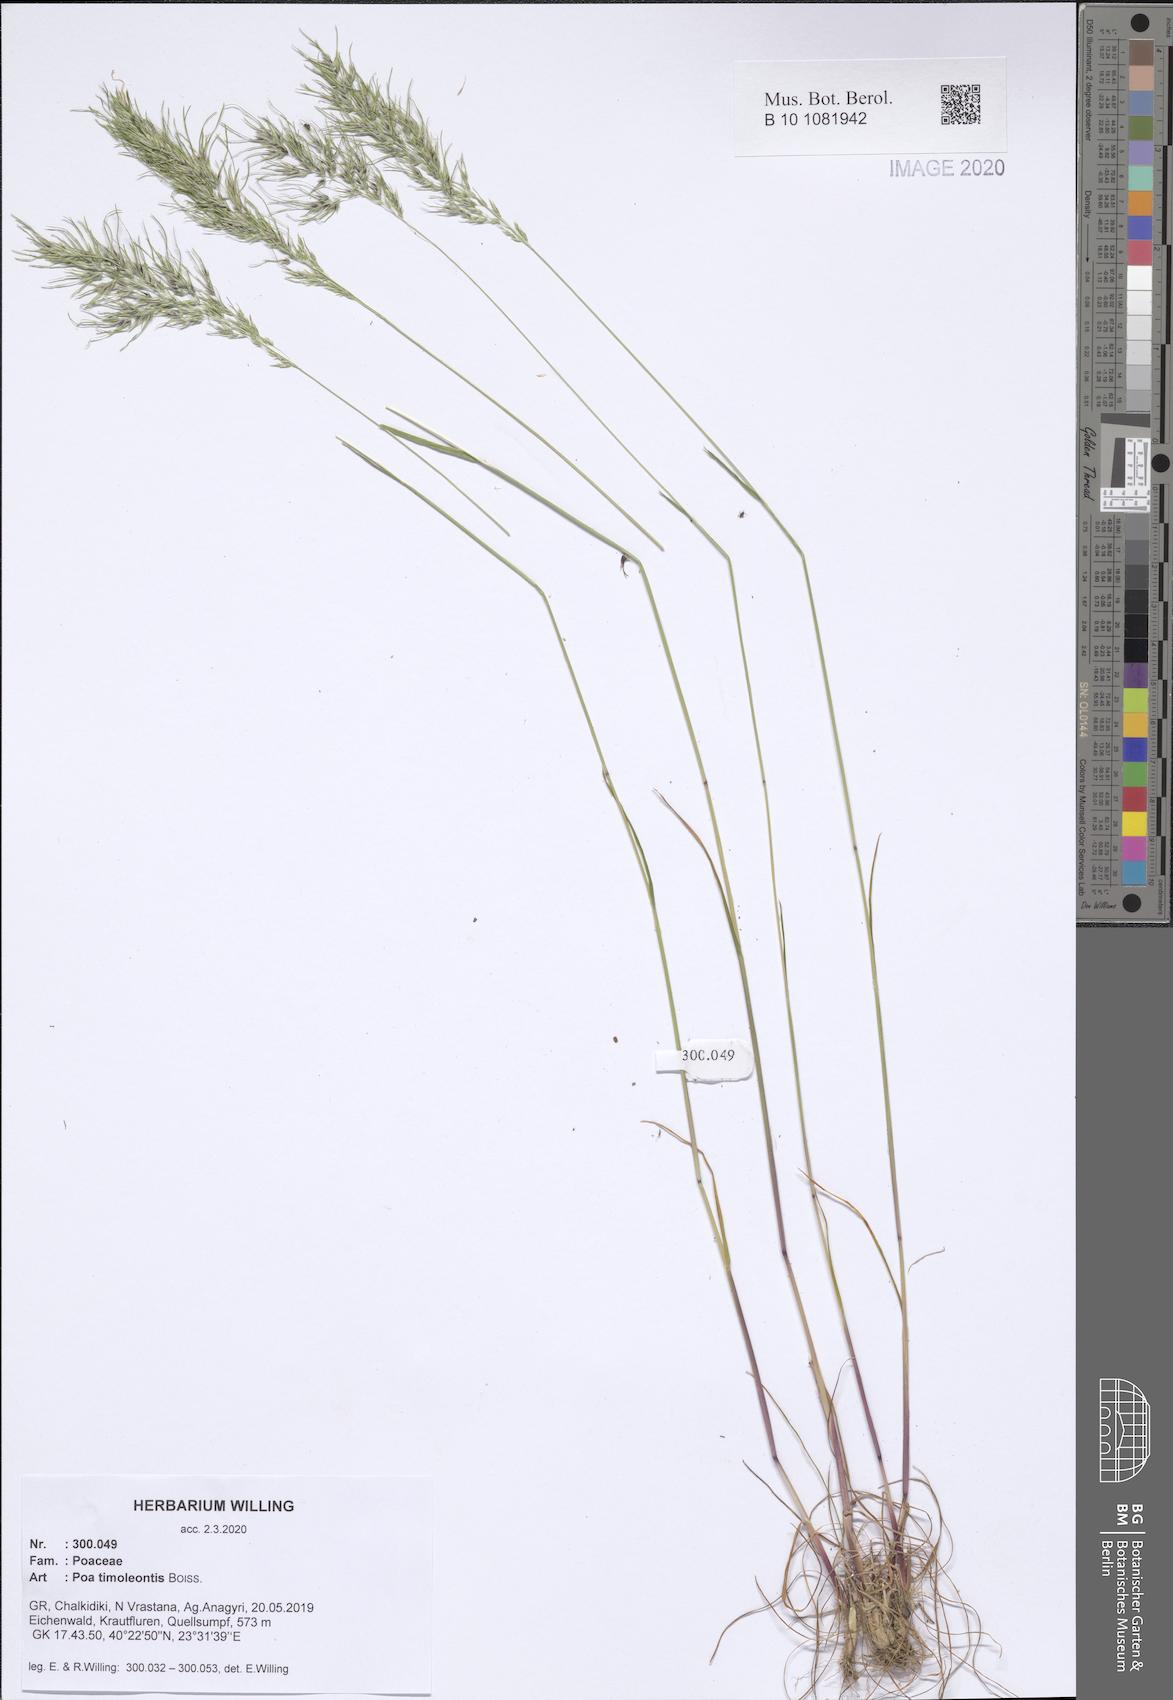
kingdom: Plantae
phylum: Tracheophyta
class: Liliopsida
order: Poales
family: Poaceae
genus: Poa
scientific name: Poa timoleontis
